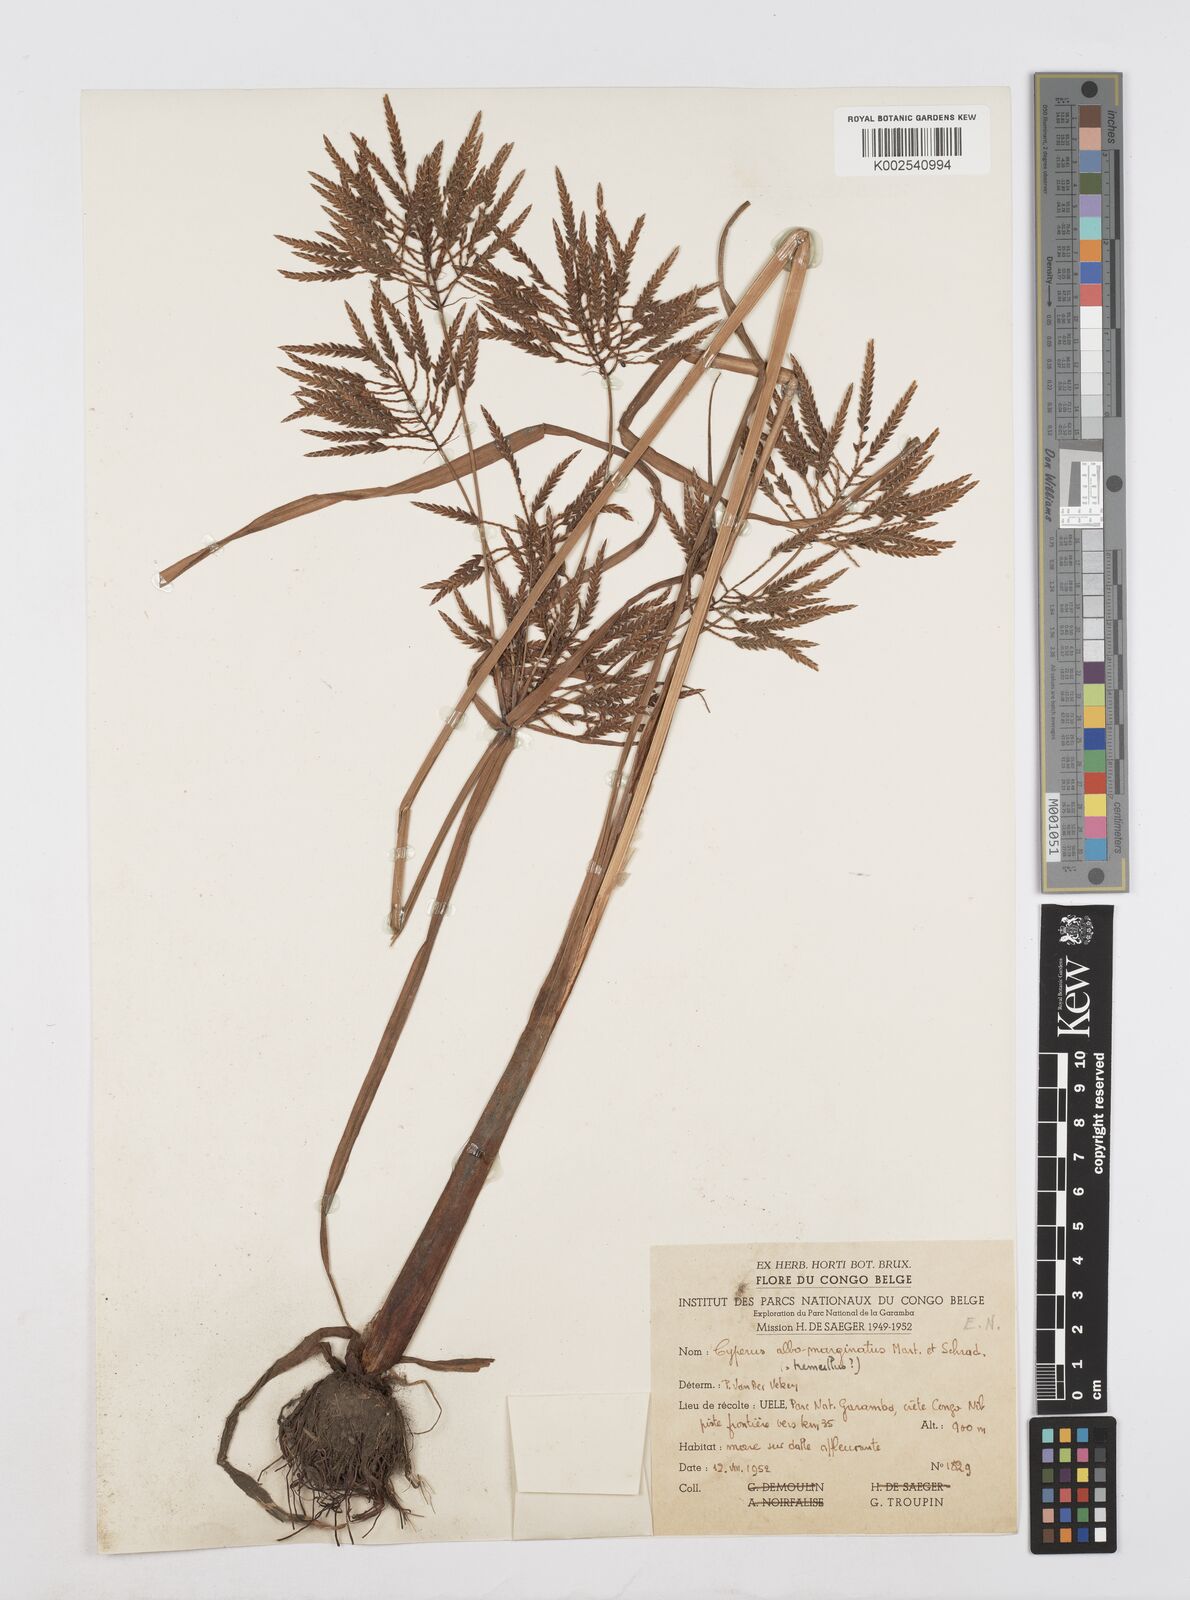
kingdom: Plantae
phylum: Tracheophyta
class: Liliopsida
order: Poales
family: Cyperaceae
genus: Cyperus
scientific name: Cyperus macrostachyos
